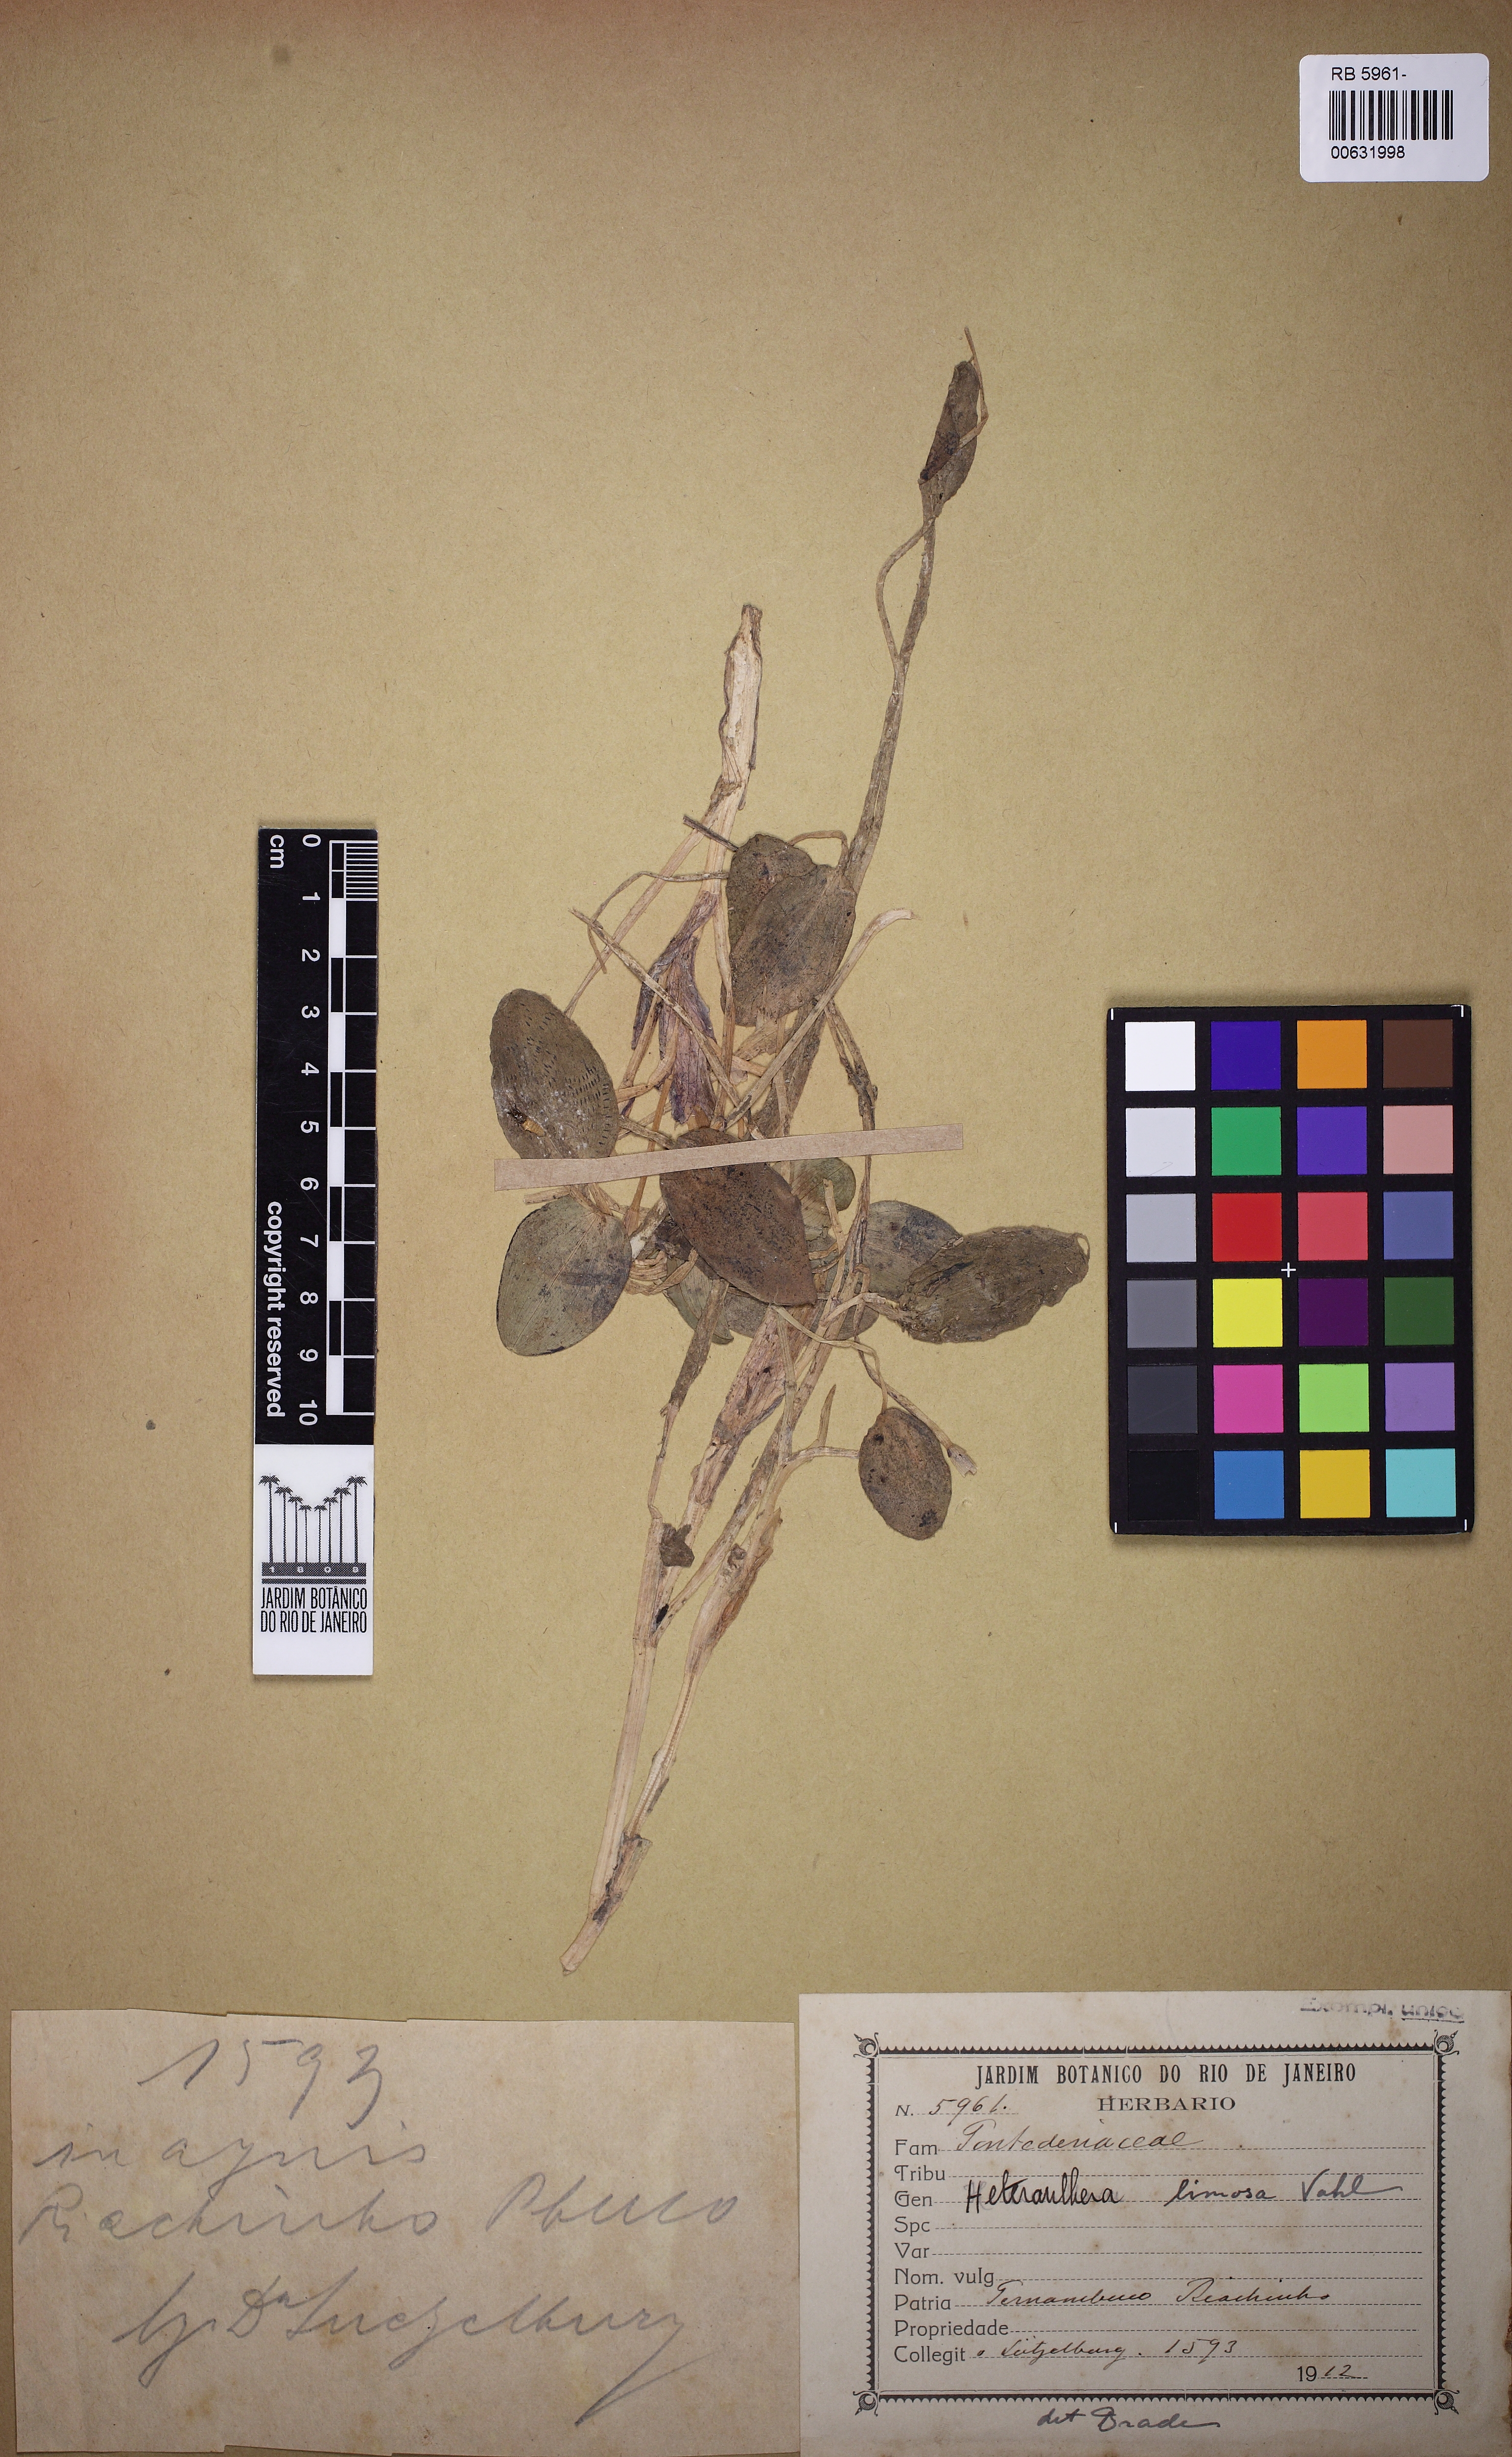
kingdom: Plantae
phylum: Tracheophyta
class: Liliopsida
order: Commelinales
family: Pontederiaceae
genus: Heteranthera
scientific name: Heteranthera rotundifolia
